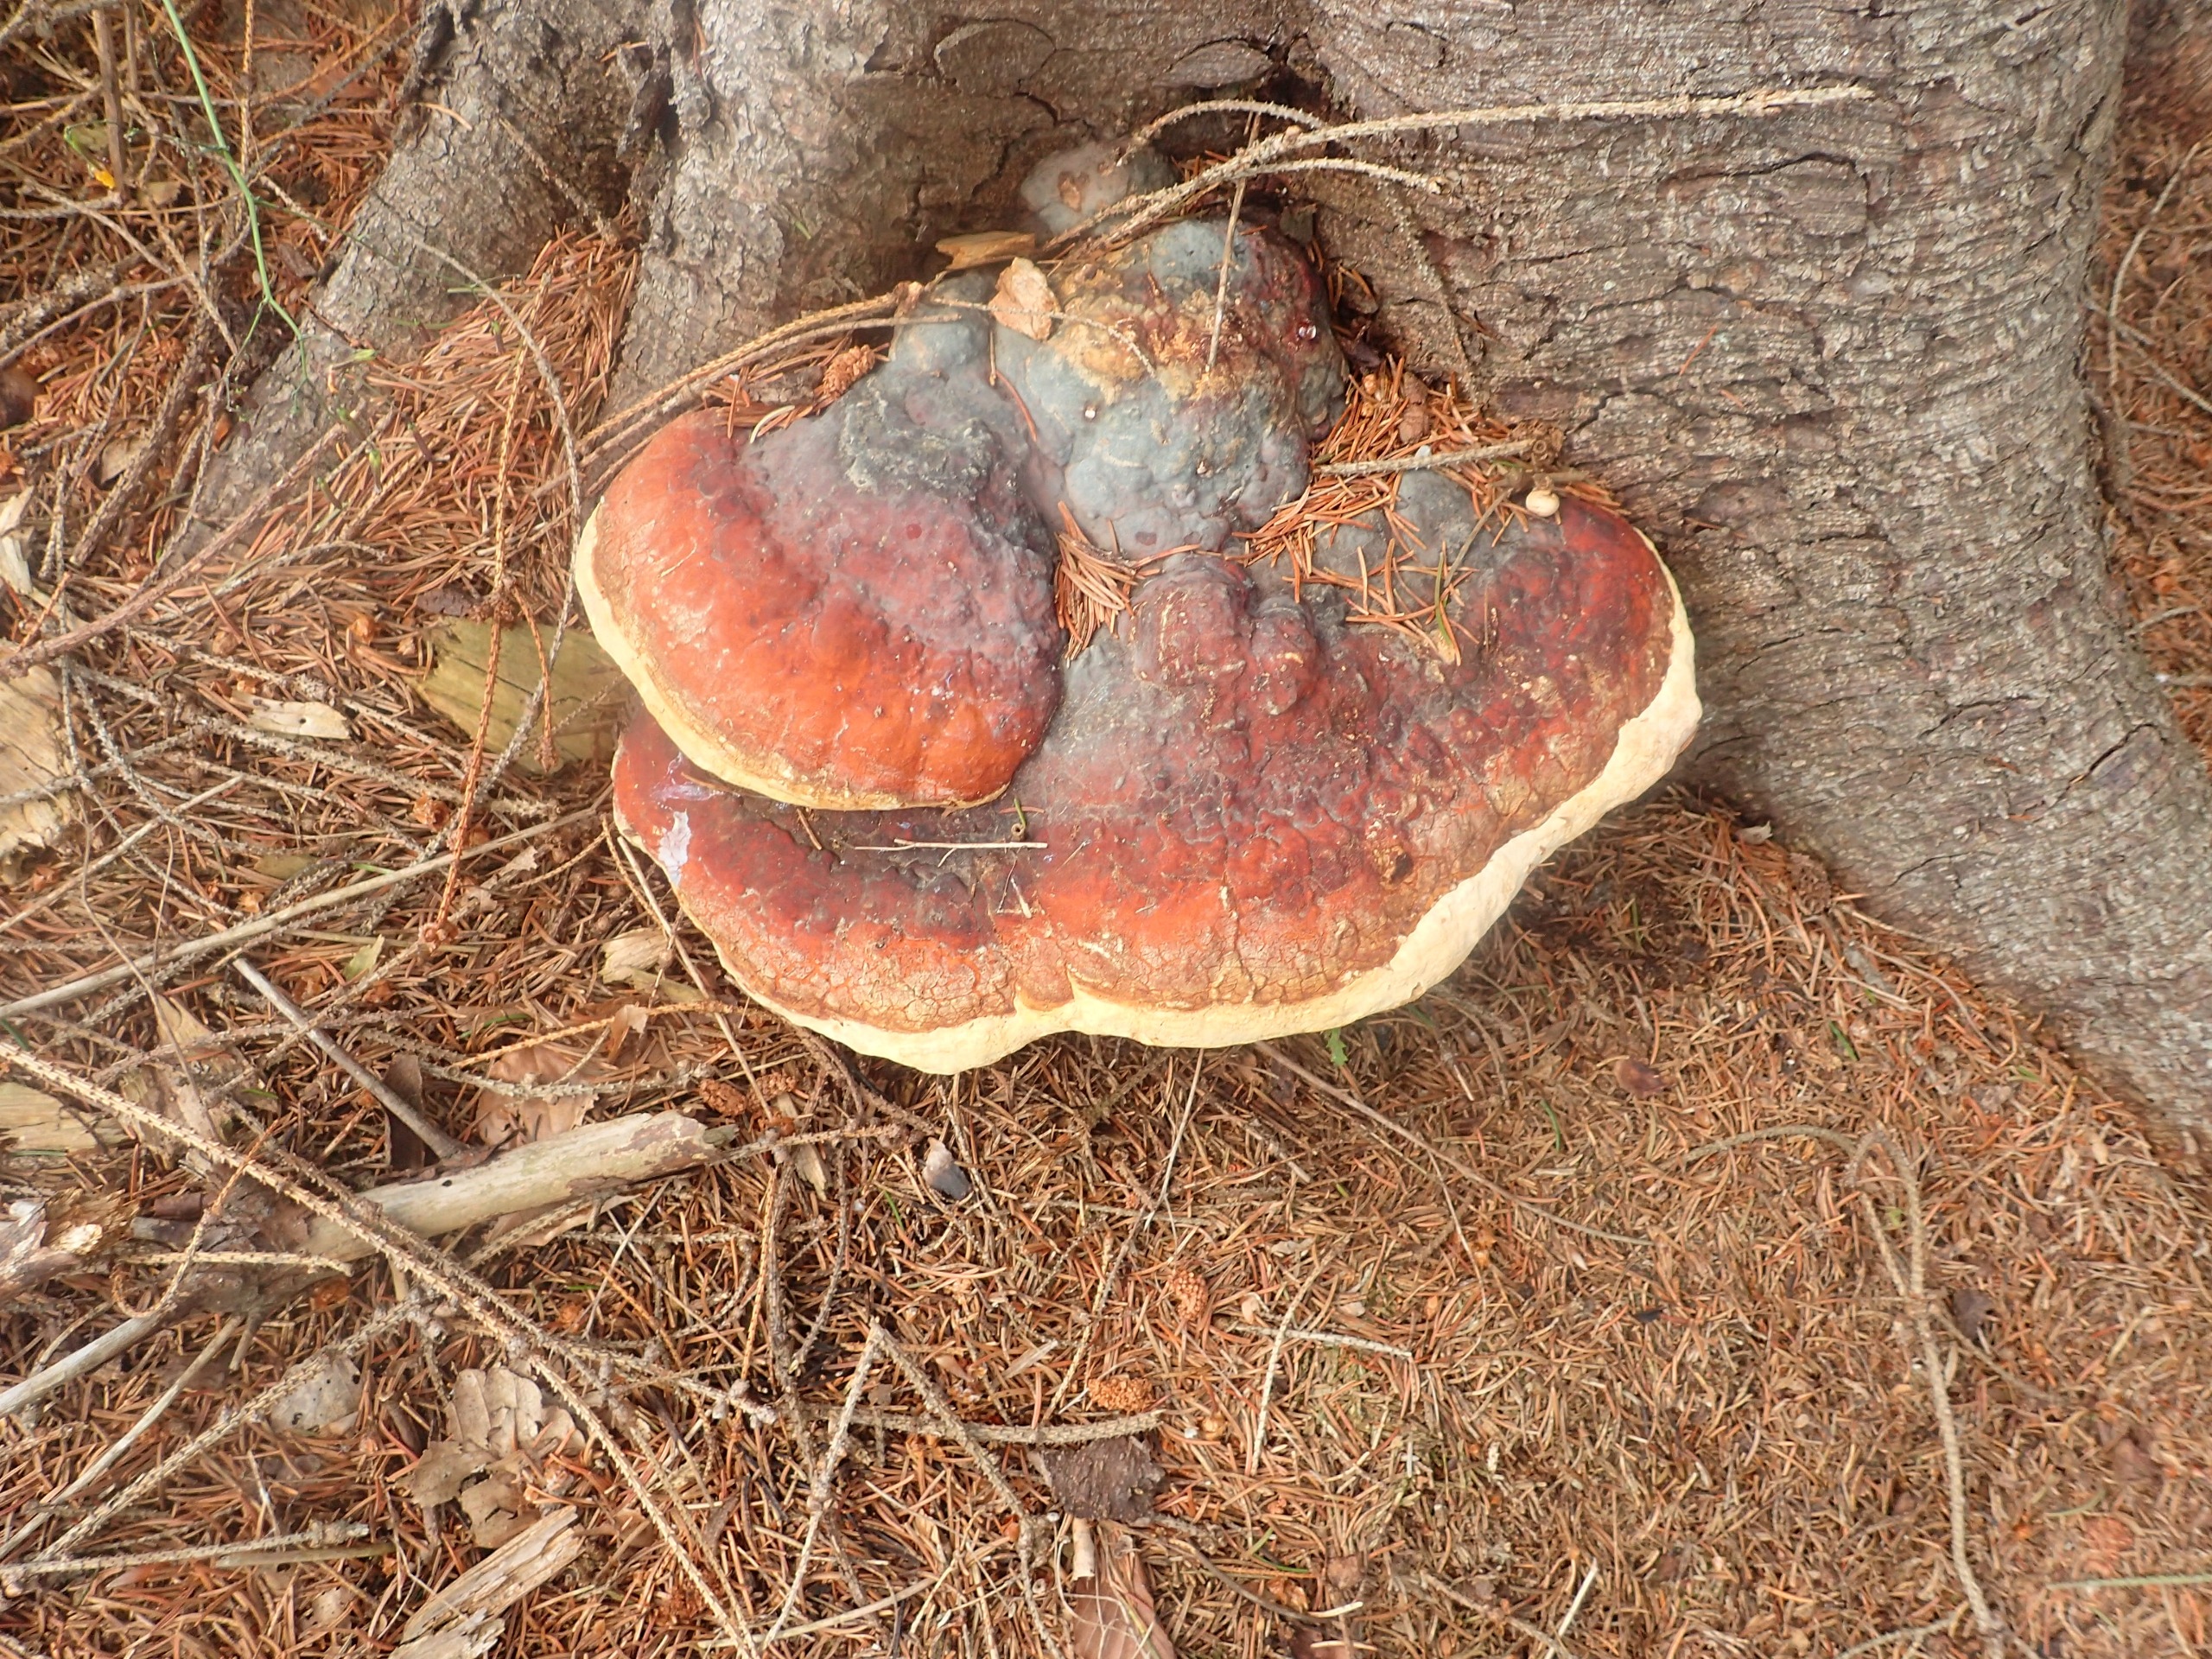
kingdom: Fungi
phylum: Basidiomycota
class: Agaricomycetes
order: Polyporales
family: Fomitopsidaceae
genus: Fomitopsis
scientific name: Fomitopsis pinicola
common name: Randbæltet hovporesvamp
